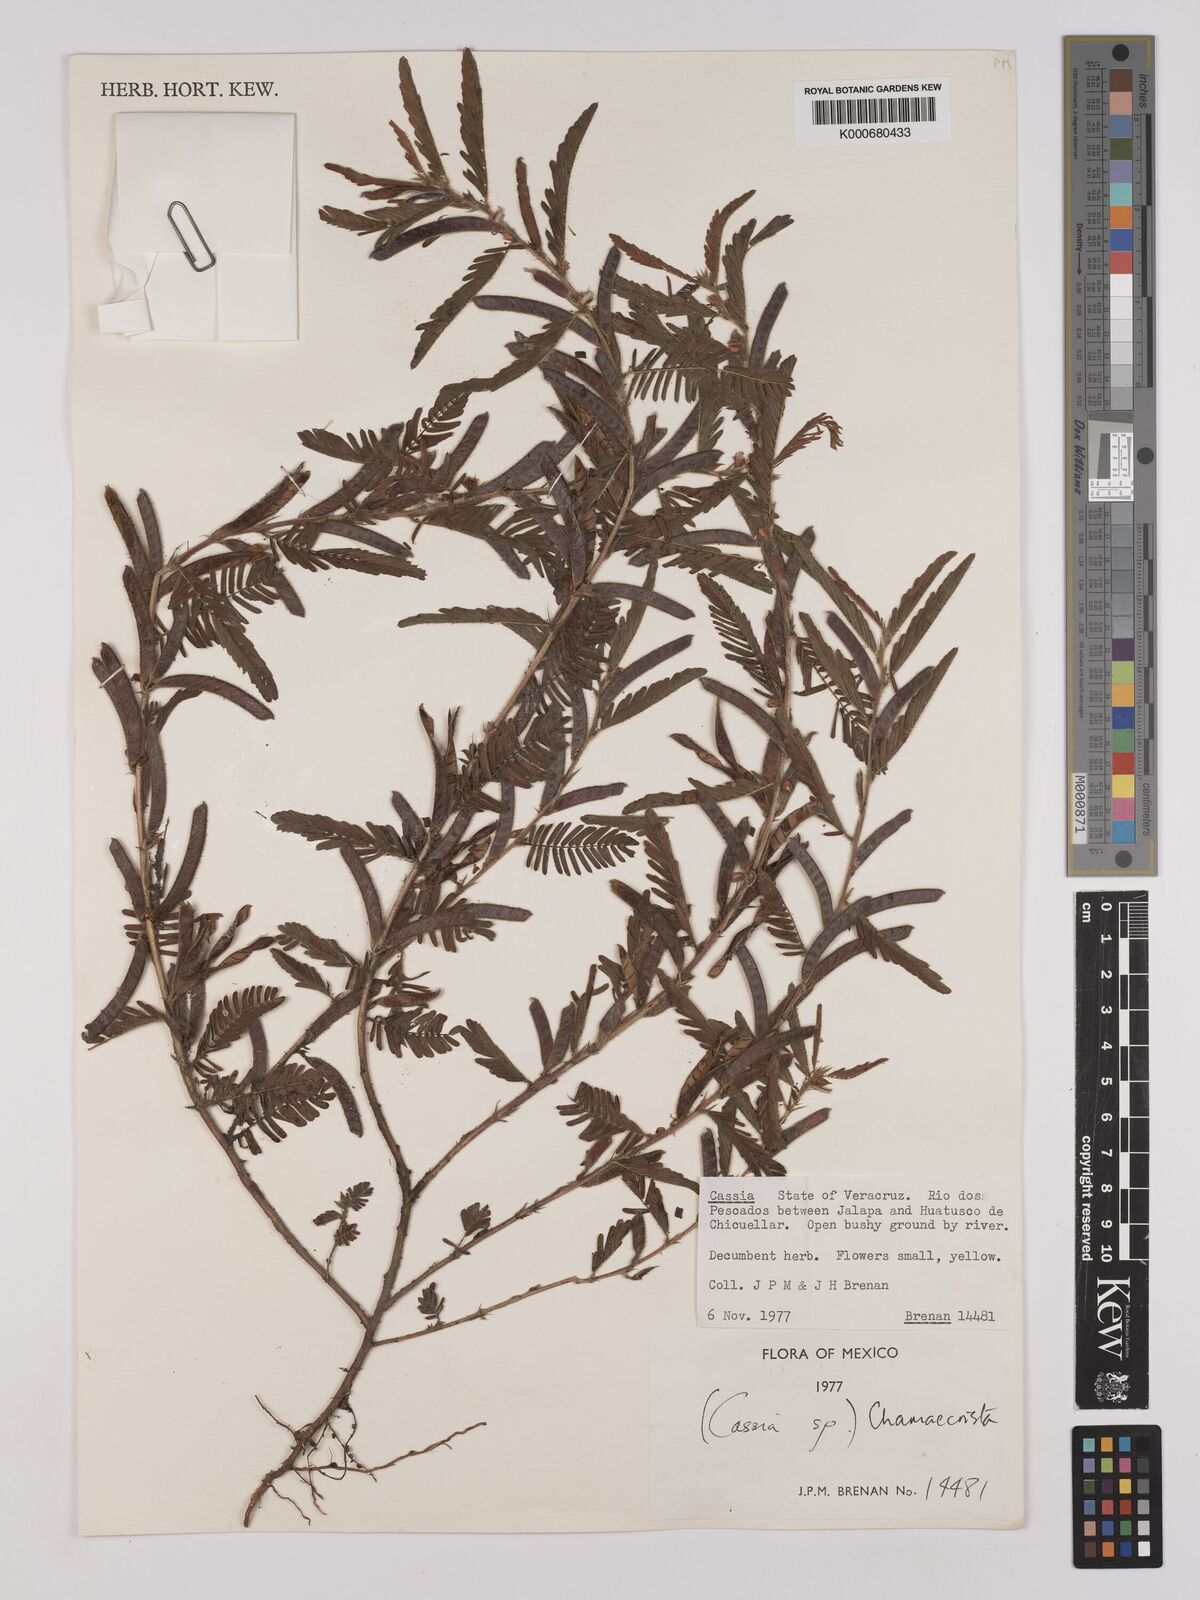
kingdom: Plantae
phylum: Tracheophyta
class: Magnoliopsida
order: Fabales
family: Fabaceae
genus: Chamaecrista
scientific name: Chamaecrista
